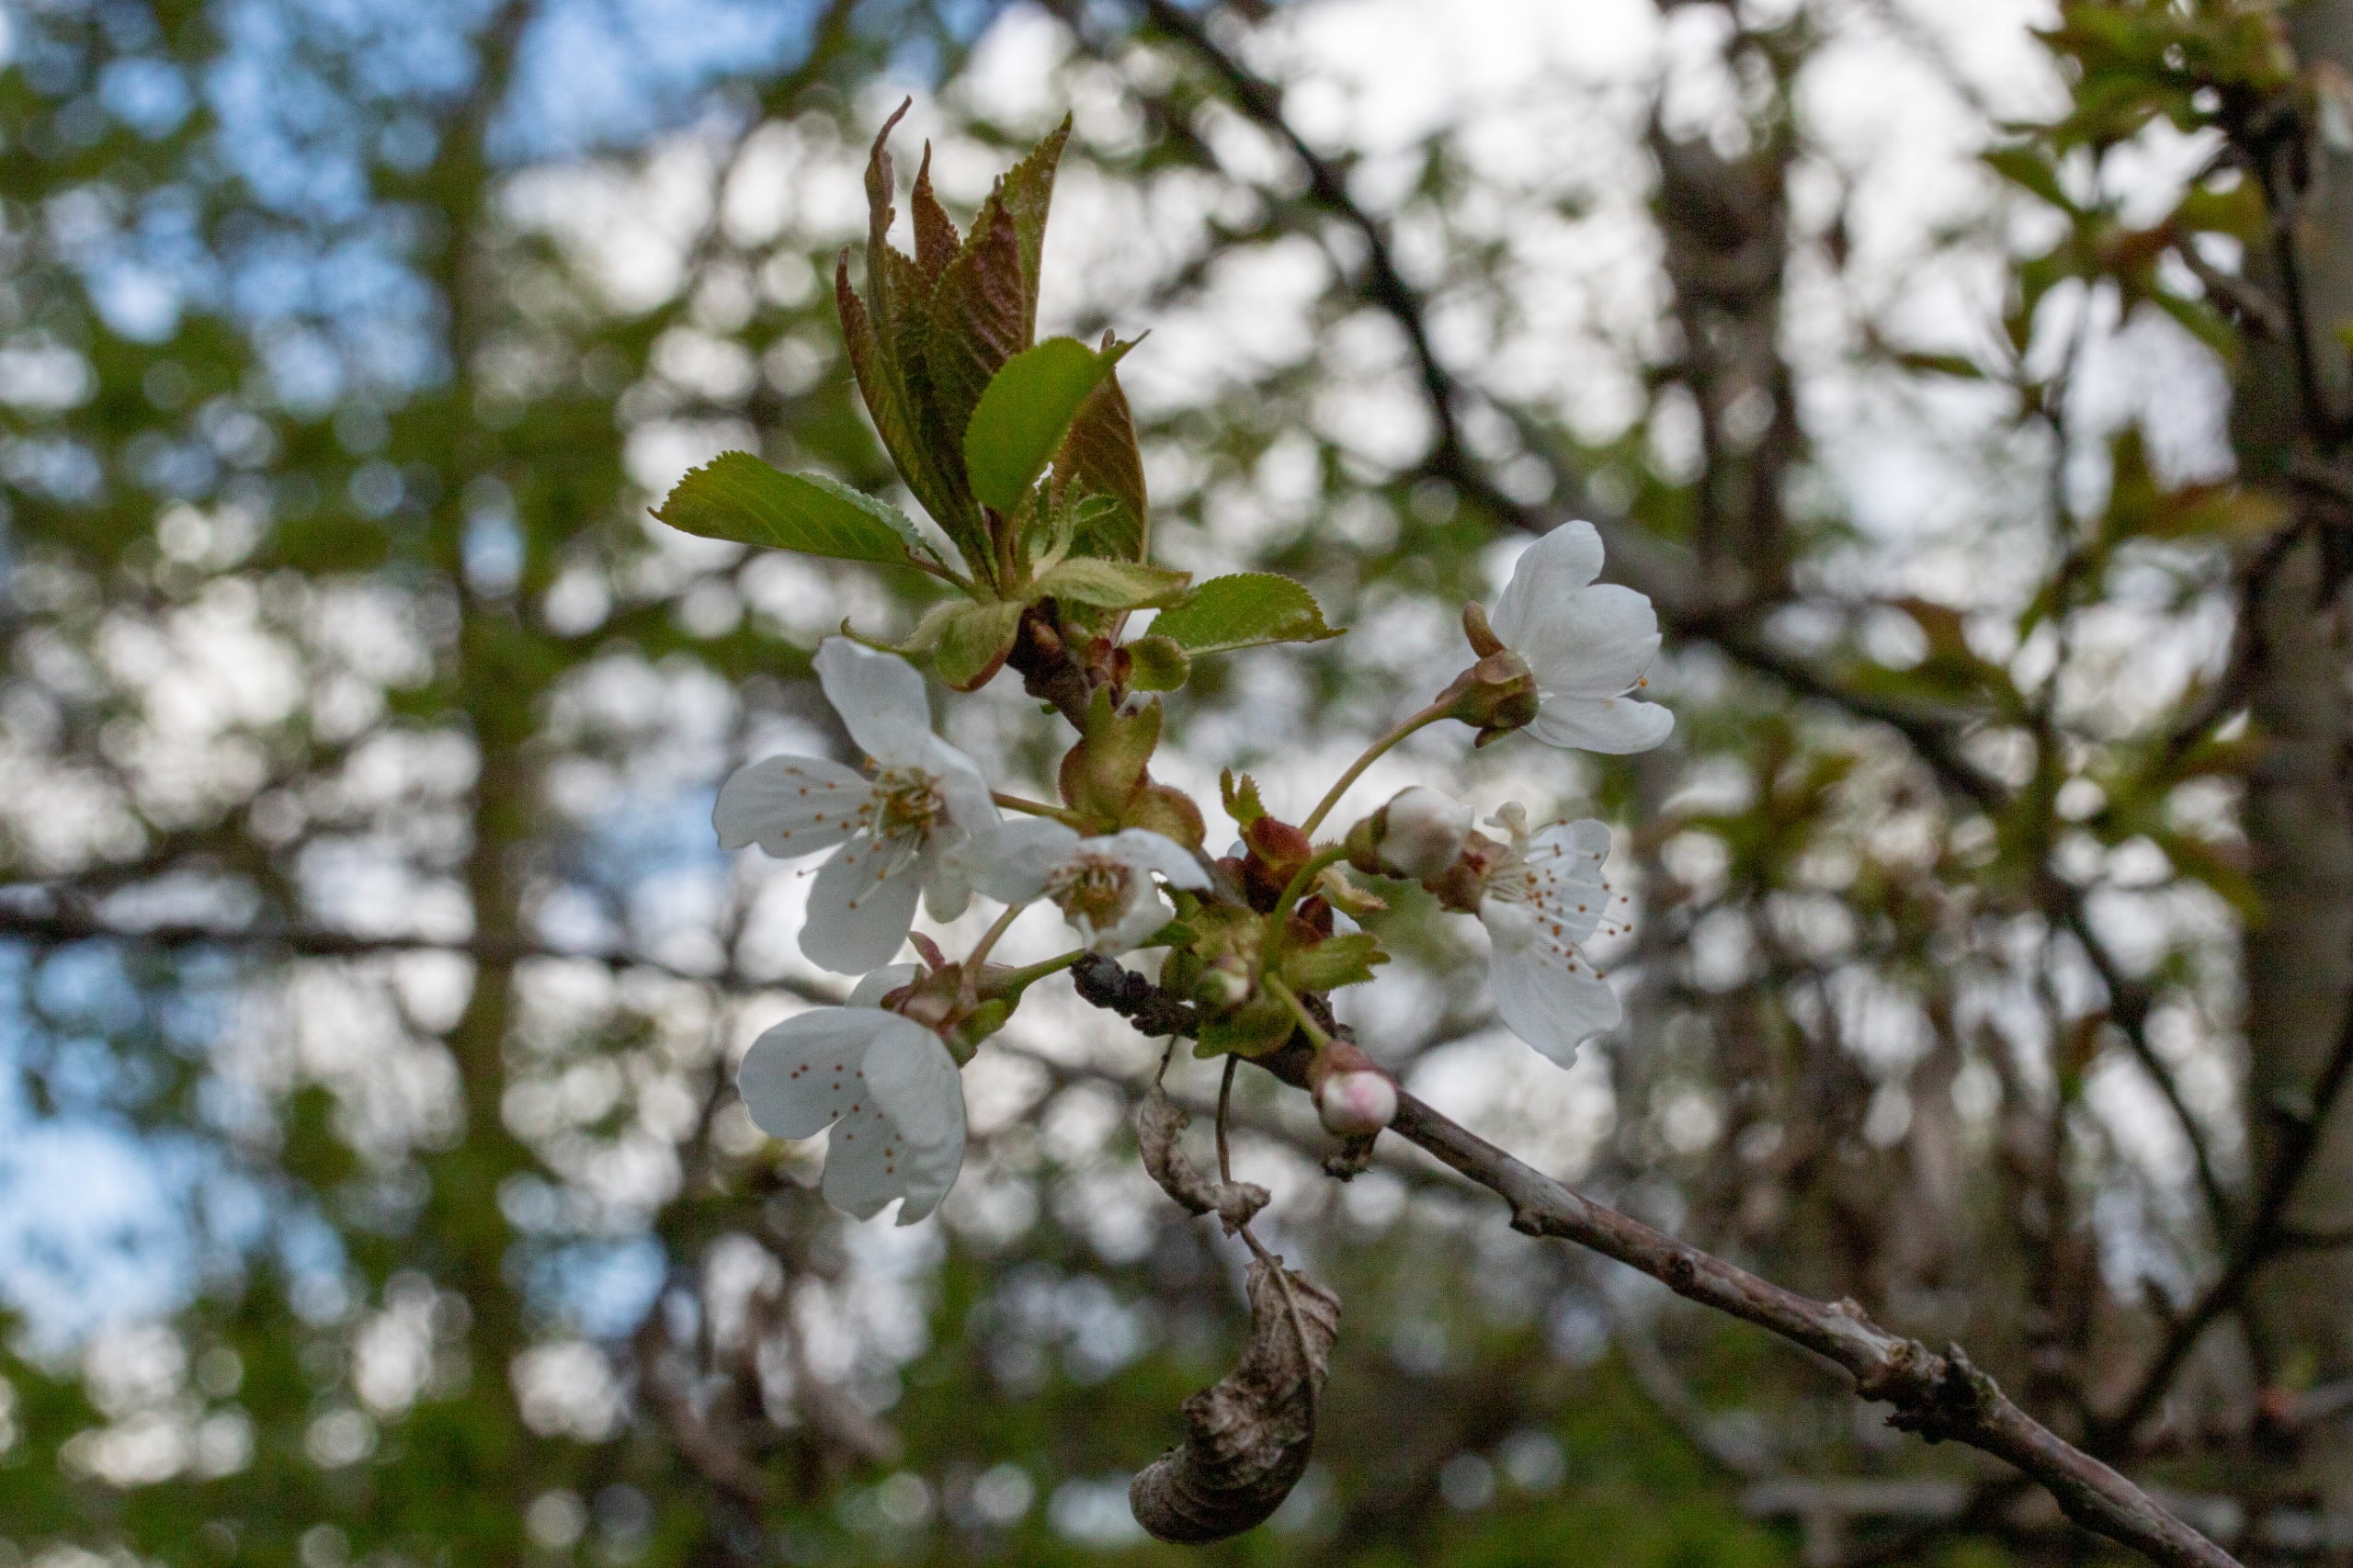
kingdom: Plantae
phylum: Tracheophyta
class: Magnoliopsida
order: Rosales
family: Rosaceae
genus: Prunus
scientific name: Prunus avium
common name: Fugle-kirsebær
